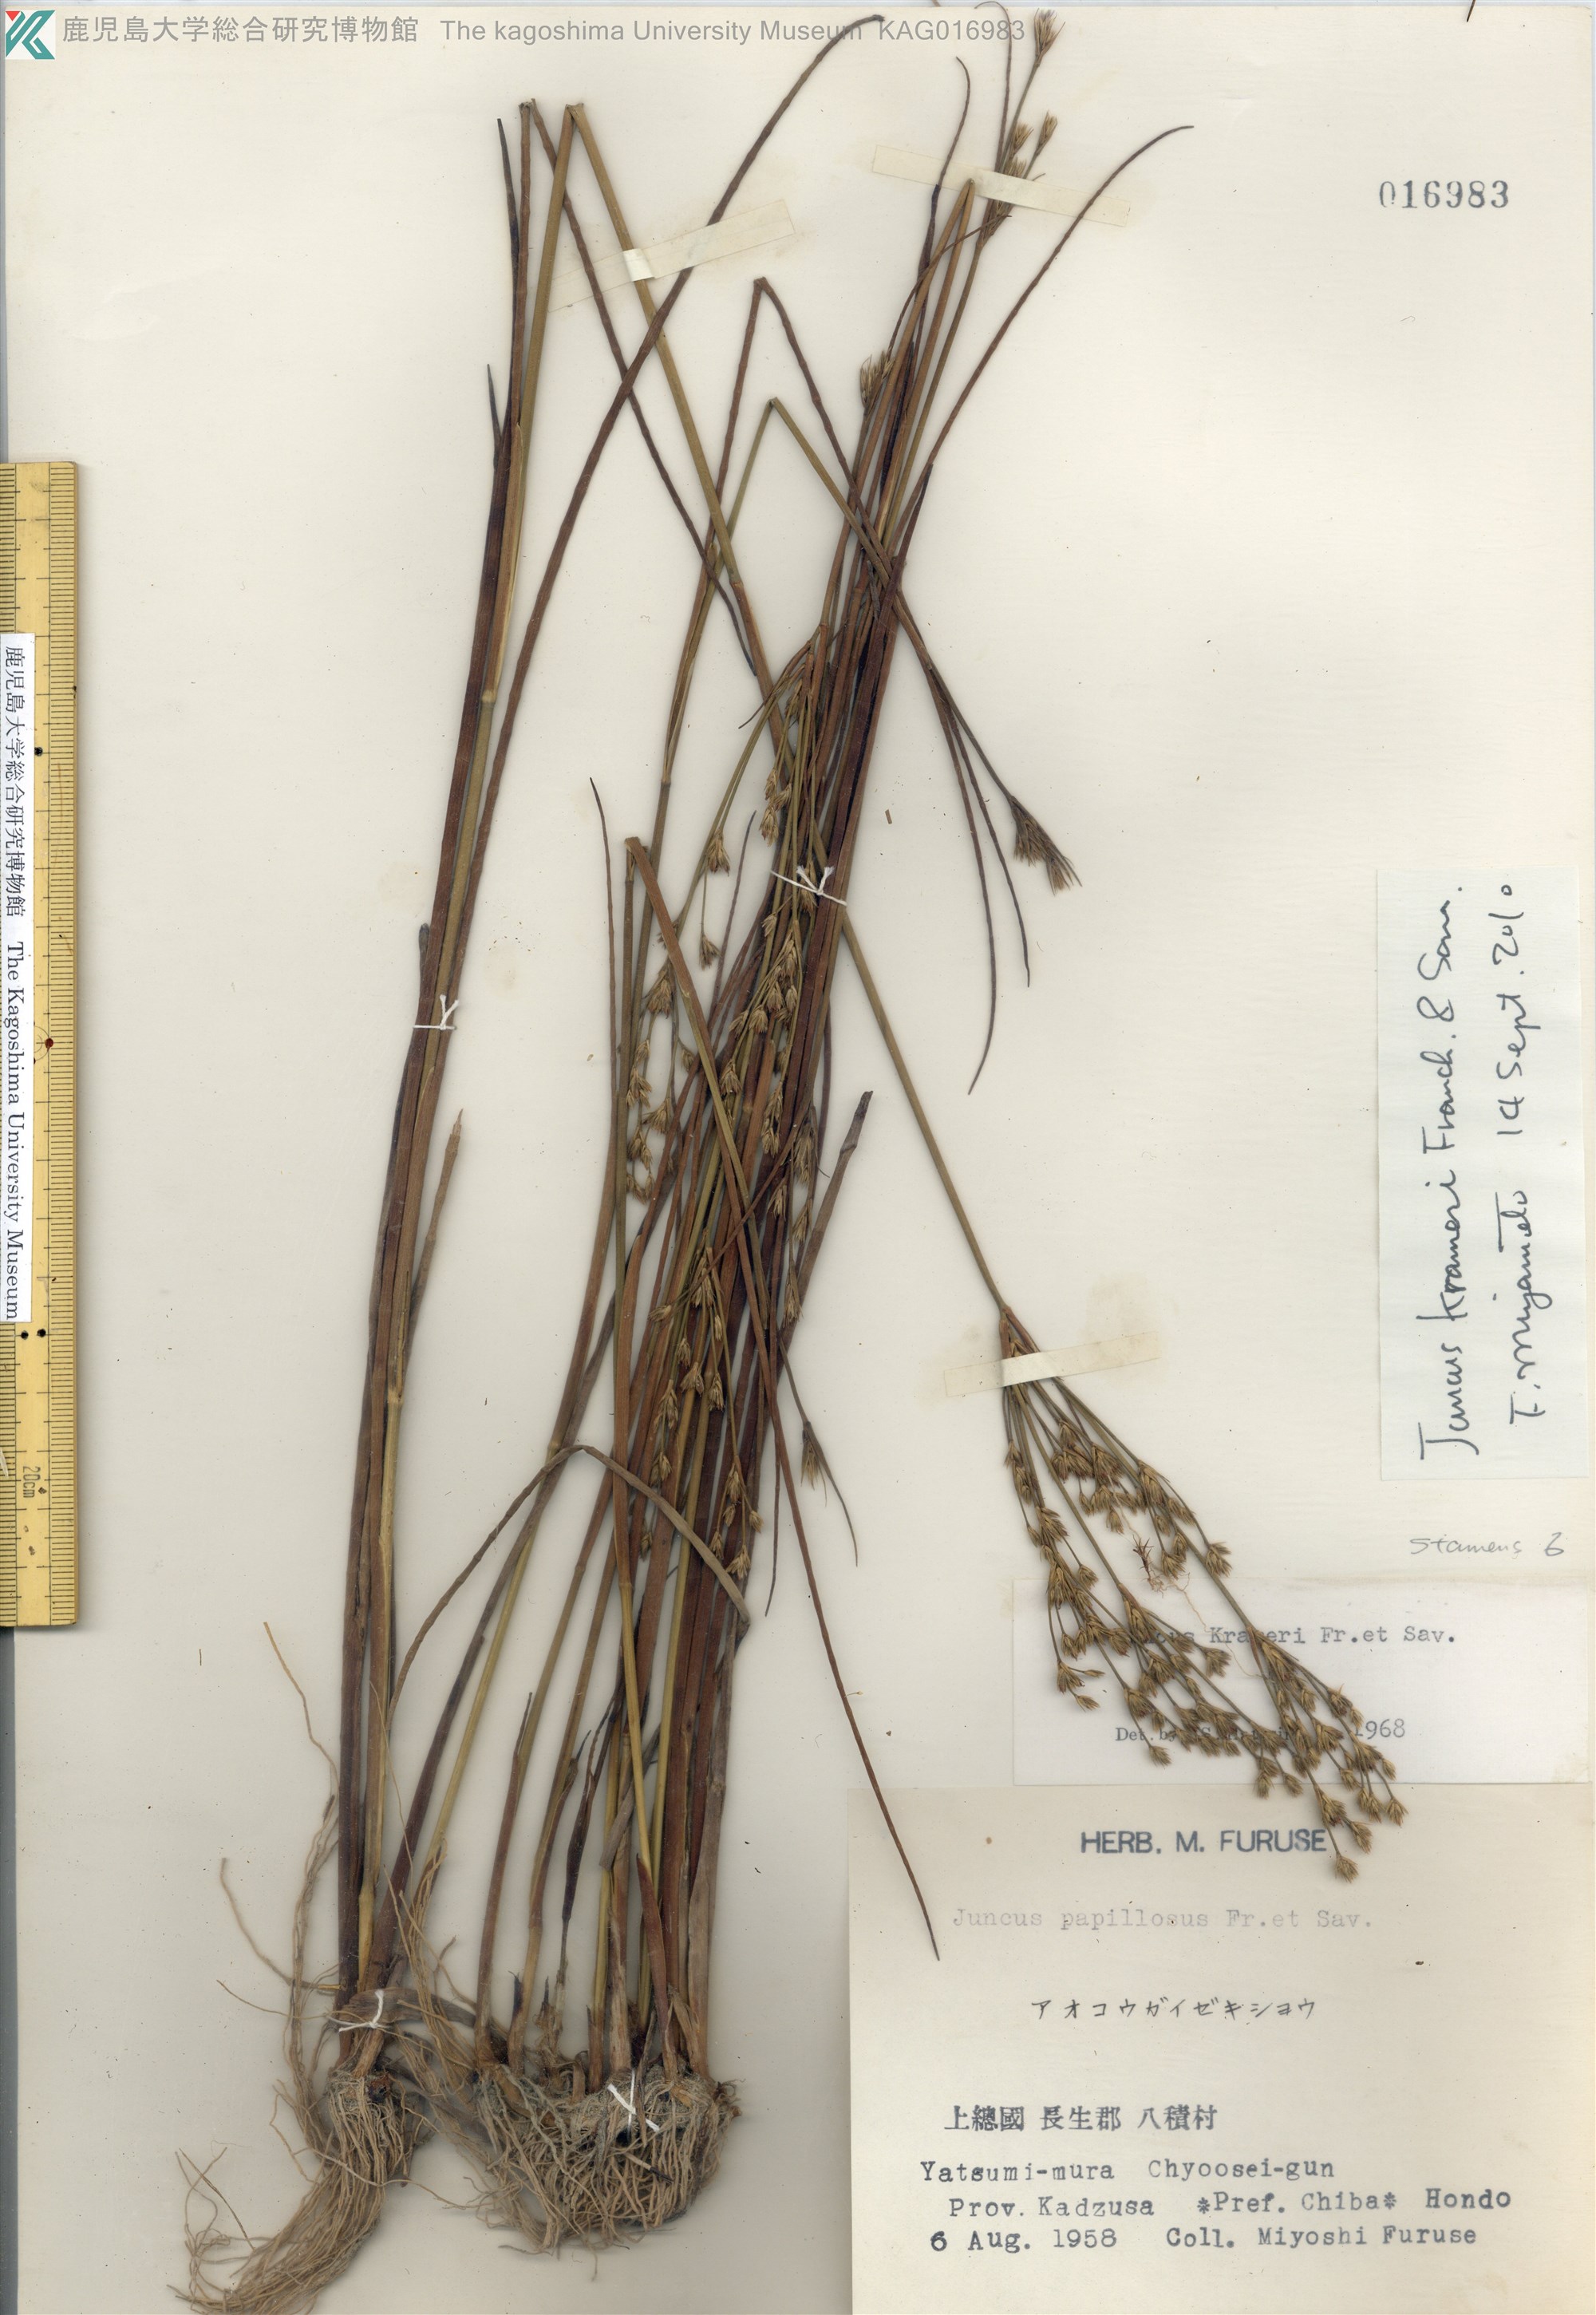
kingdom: Plantae
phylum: Tracheophyta
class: Liliopsida
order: Poales
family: Juncaceae
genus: Juncus
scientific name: Juncus krameri
